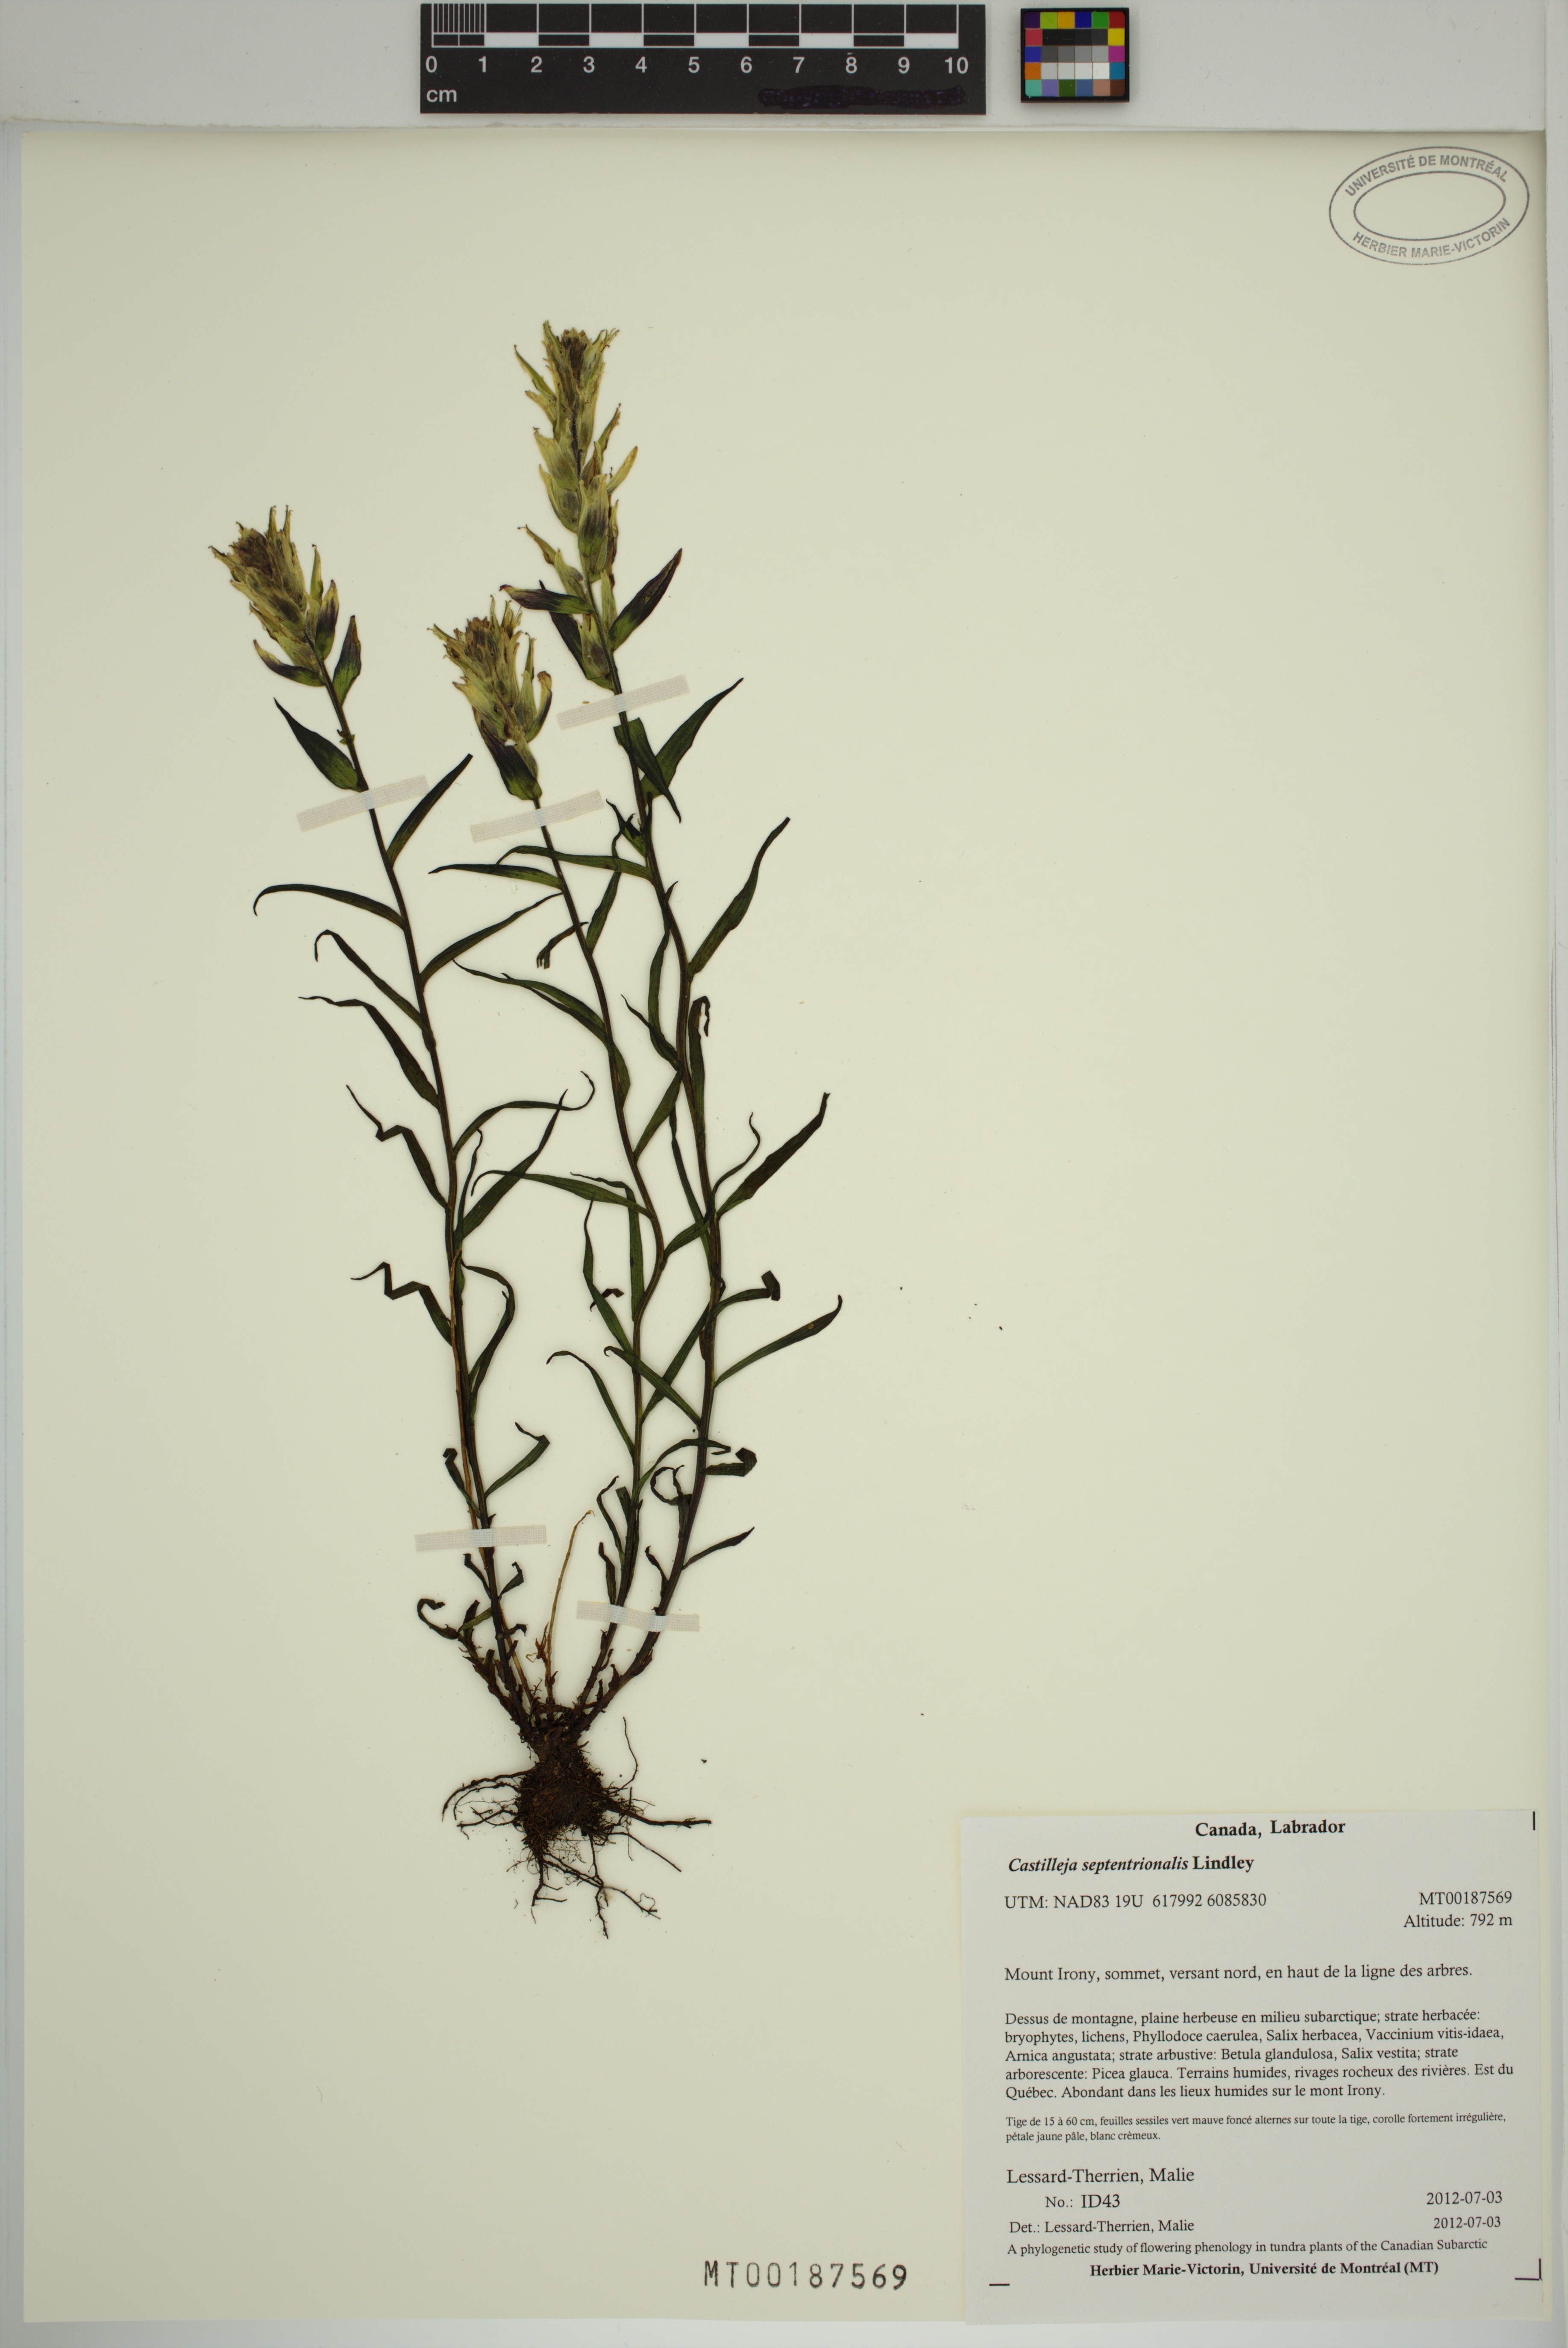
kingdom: Plantae
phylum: Tracheophyta
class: Magnoliopsida
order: Lamiales
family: Orobanchaceae
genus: Castilleja
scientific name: Castilleja septentrionalis
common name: Northeastern paintbrush
